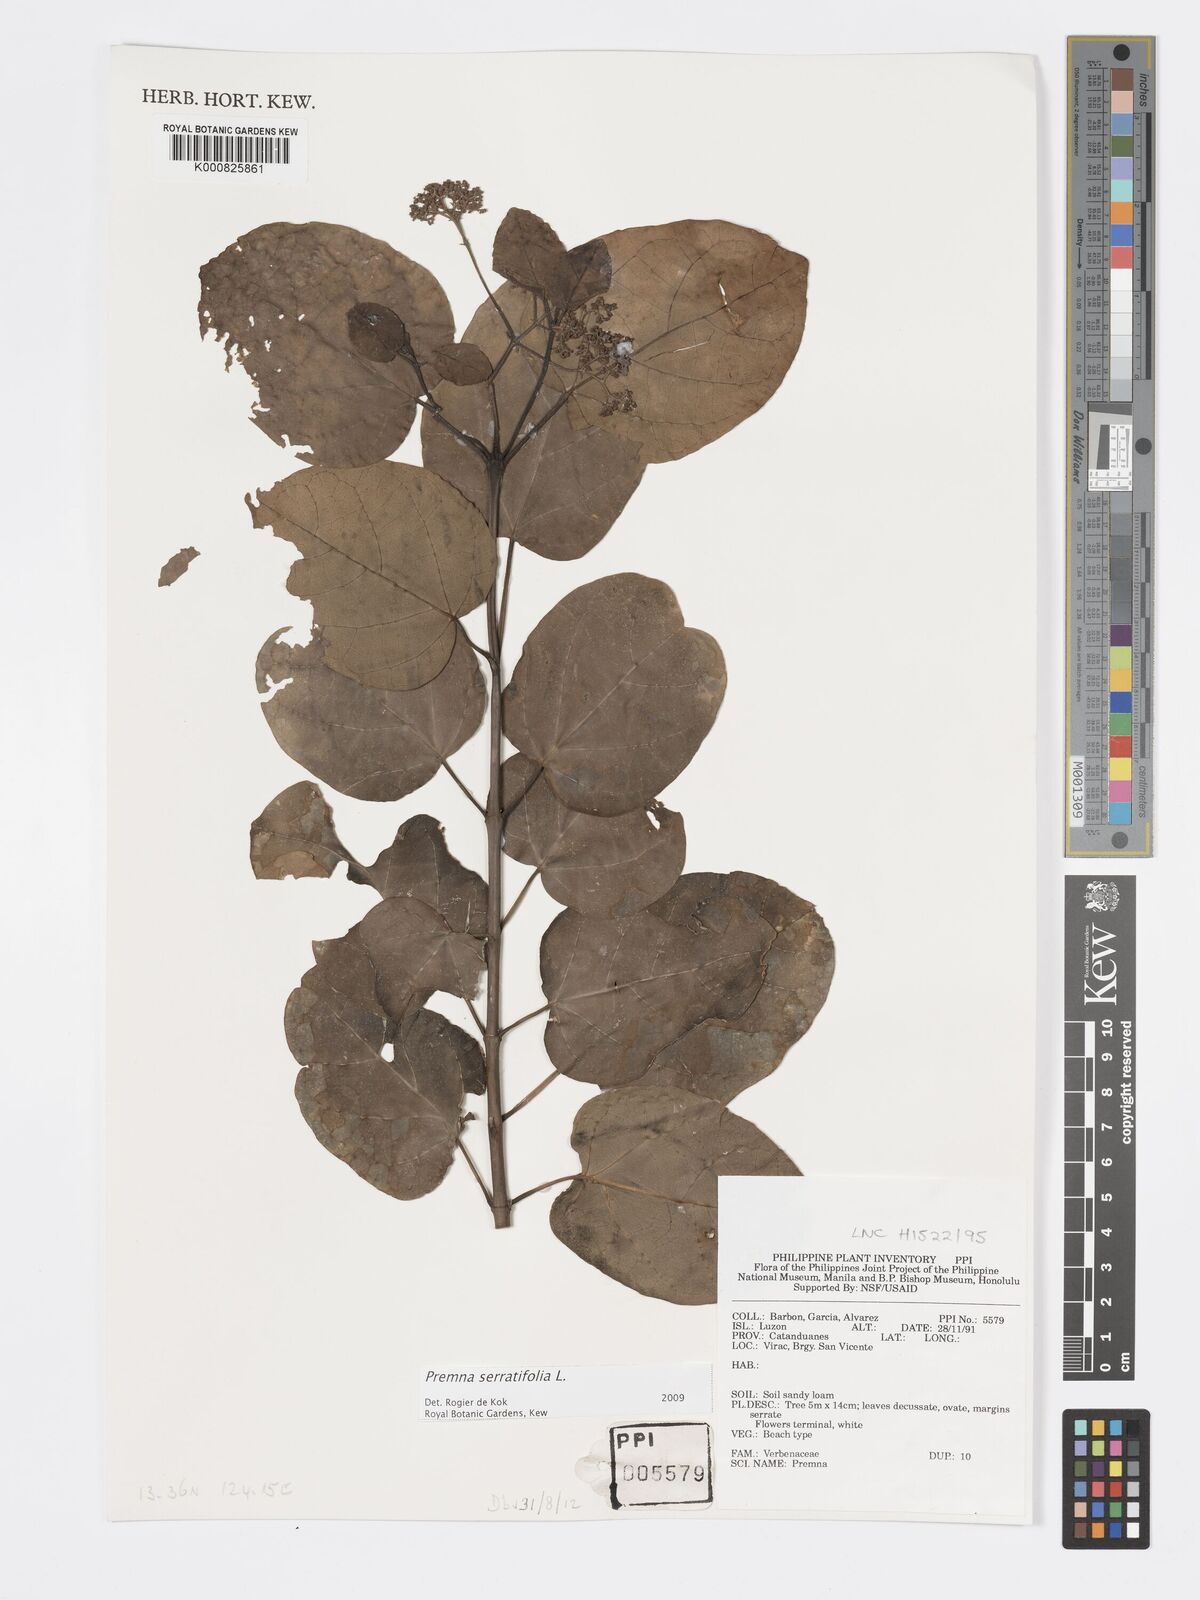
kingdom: Plantae
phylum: Tracheophyta
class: Magnoliopsida
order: Lamiales
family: Lamiaceae
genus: Premna
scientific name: Premna serratifolia
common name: Bastard guelder
